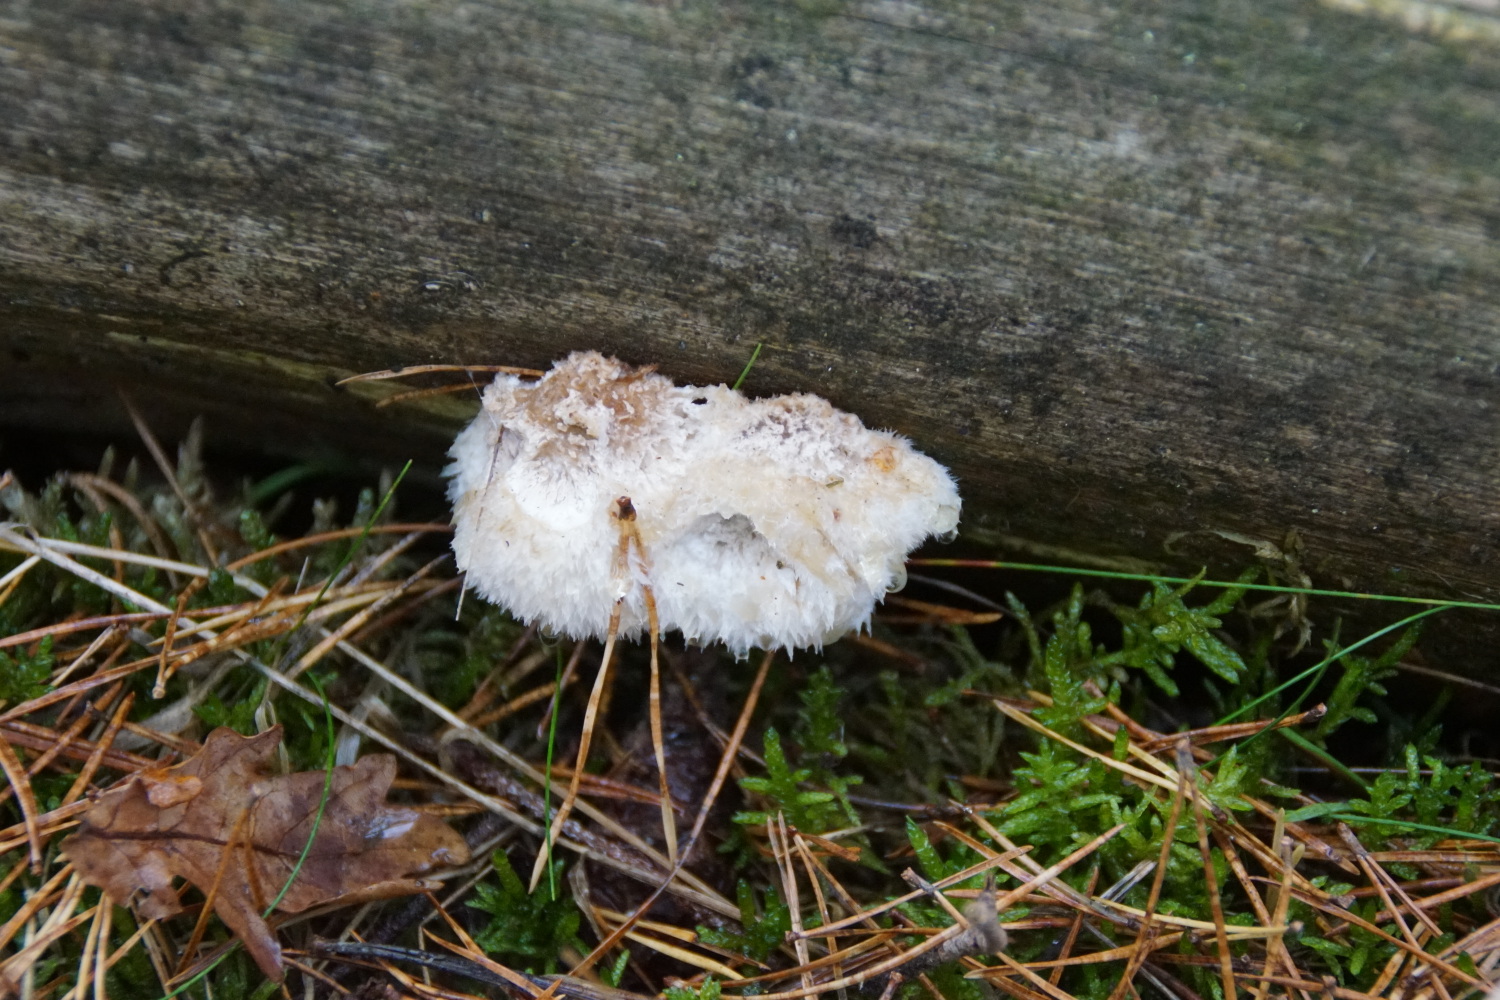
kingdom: Fungi
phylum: Basidiomycota
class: Agaricomycetes
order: Polyporales
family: Dacryobolaceae
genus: Postia
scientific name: Postia ptychogaster
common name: støvende kødporesvamp
